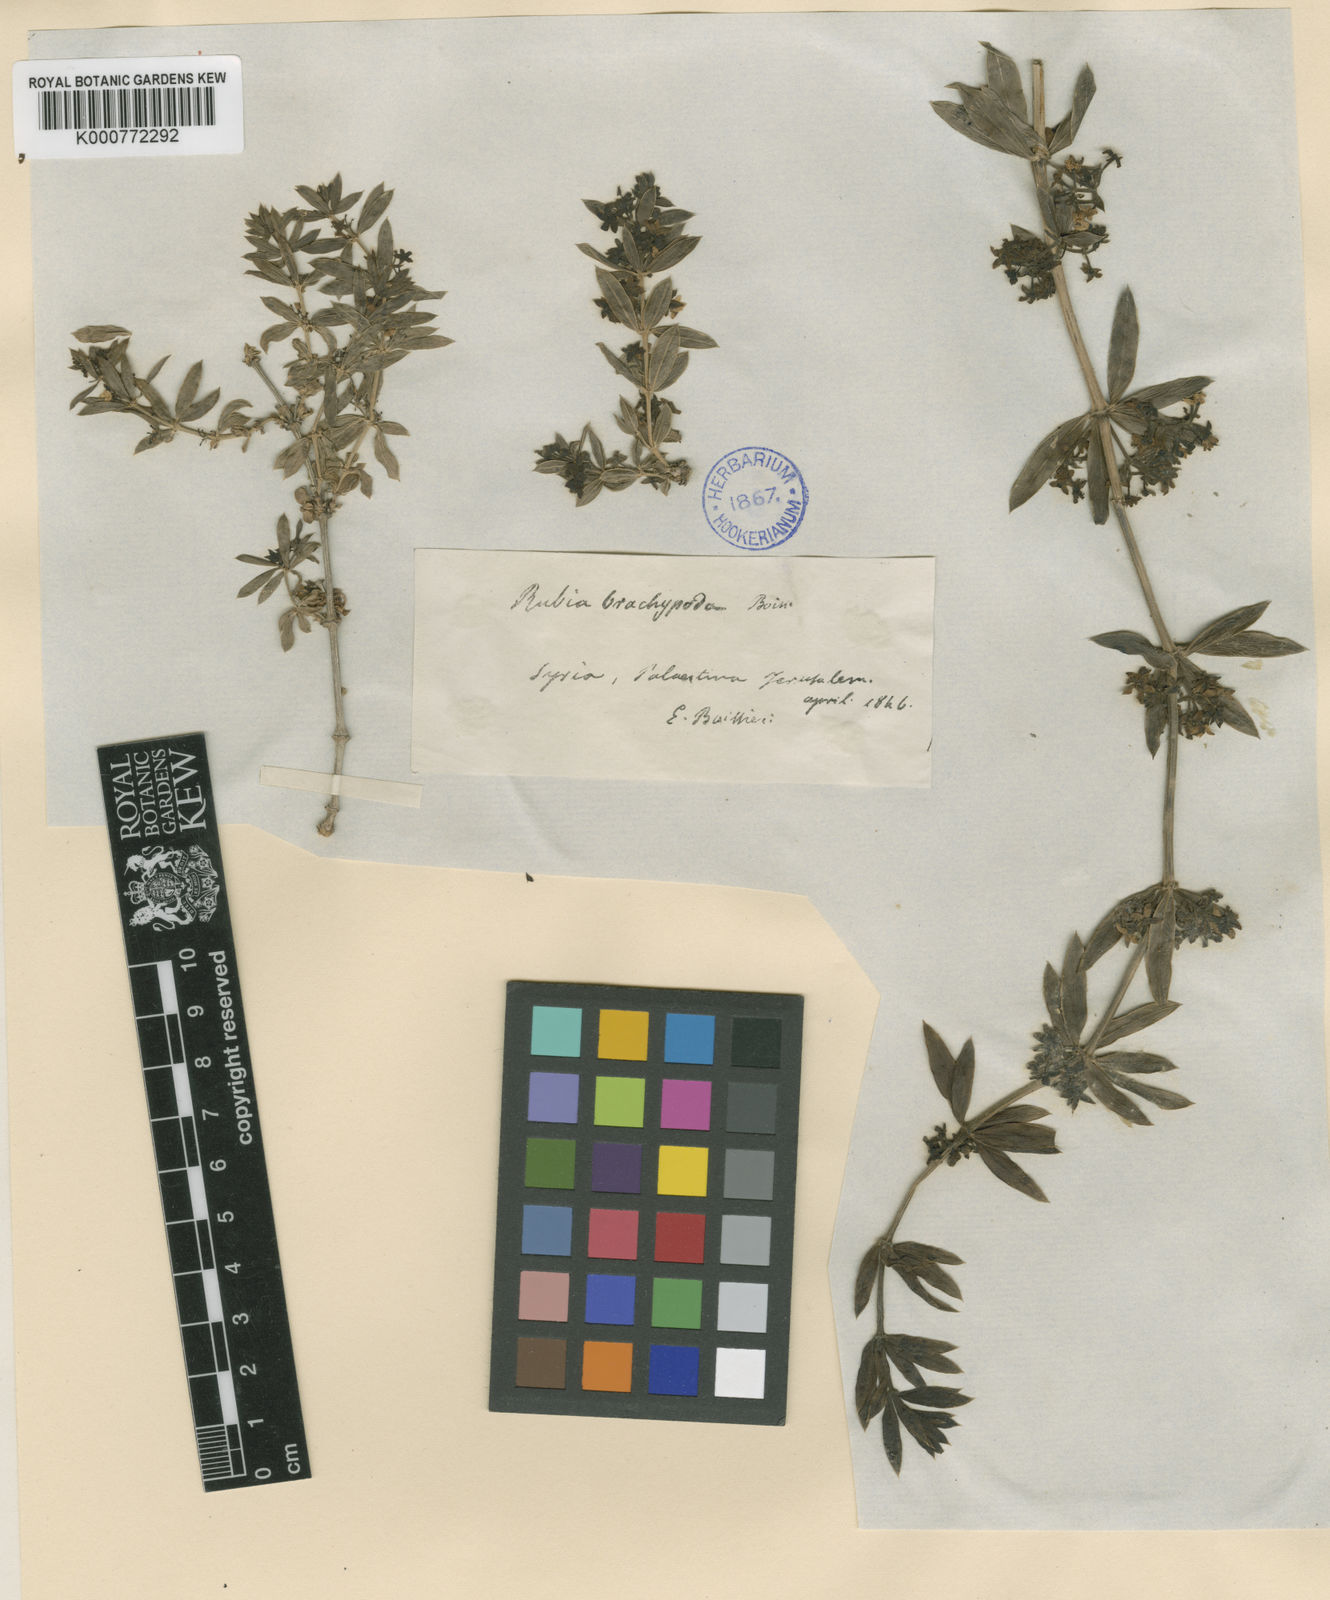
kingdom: Plantae
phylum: Tracheophyta
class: Magnoliopsida
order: Gentianales
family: Rubiaceae
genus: Rubia
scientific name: Rubia tenuifolia
